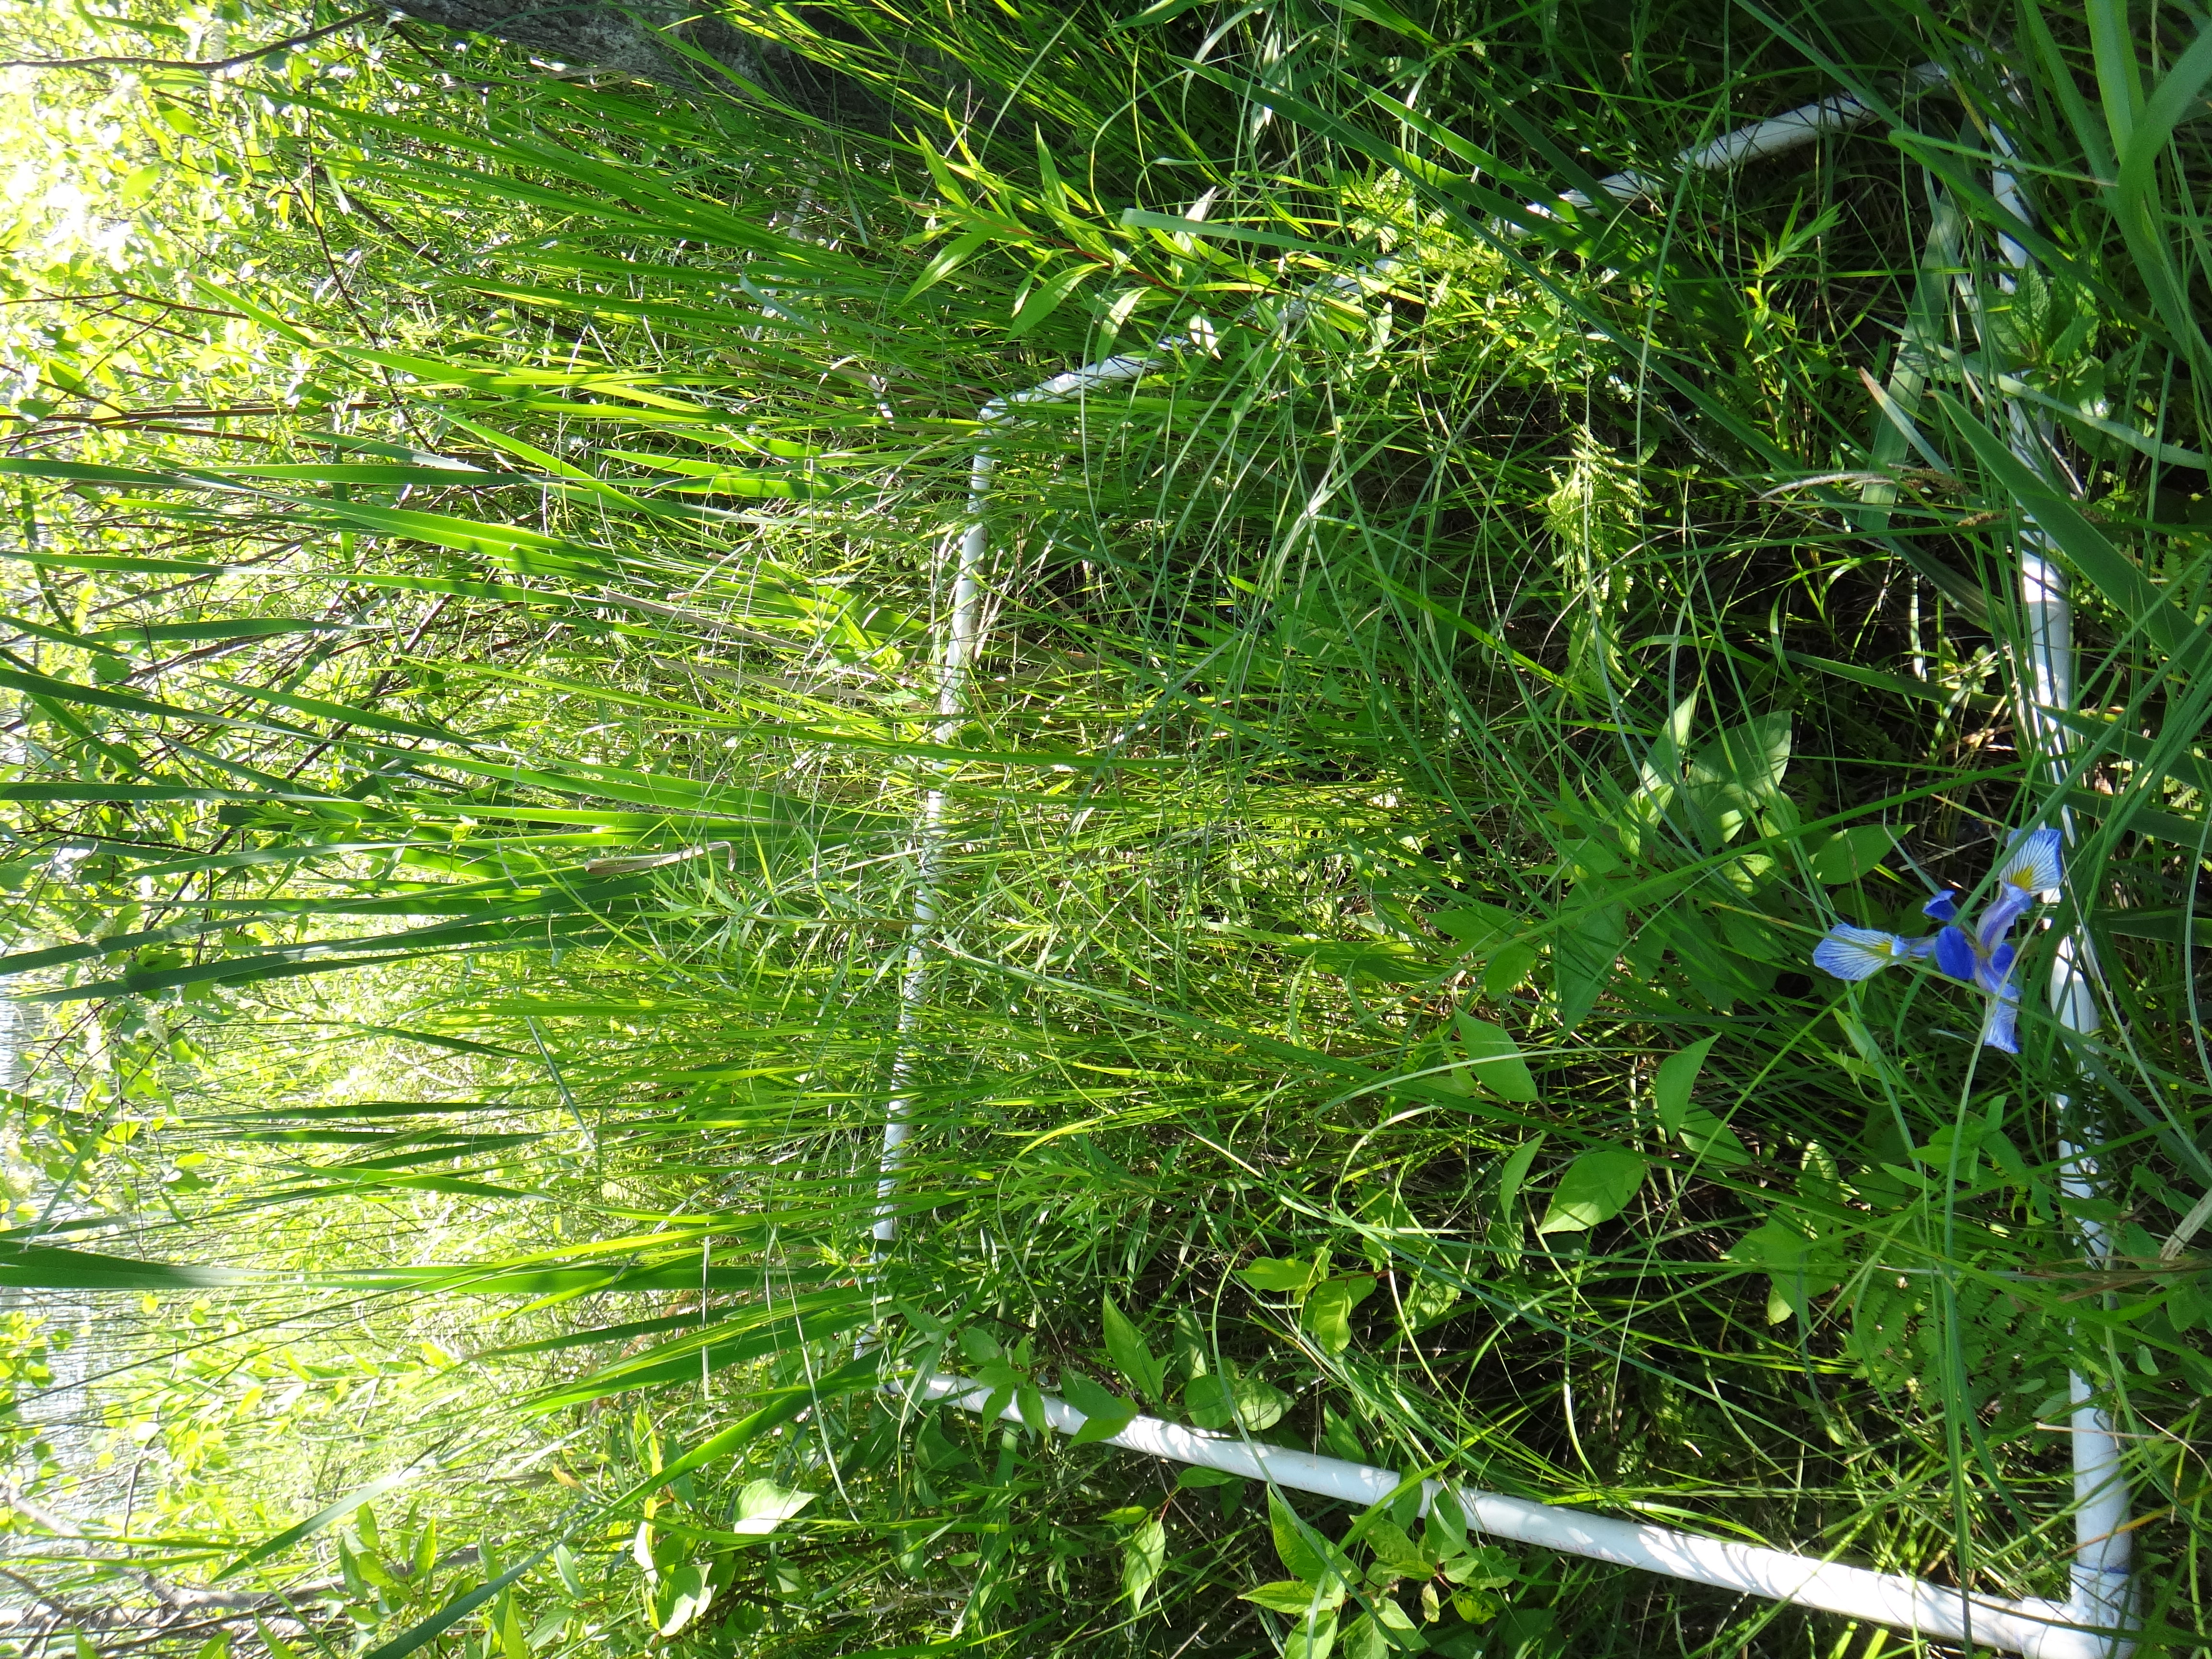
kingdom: Plantae
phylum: Tracheophyta
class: Magnoliopsida
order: Asterales
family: Asteraceae
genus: Doellingeria
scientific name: Doellingeria umbellata
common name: Flat-top white aster
